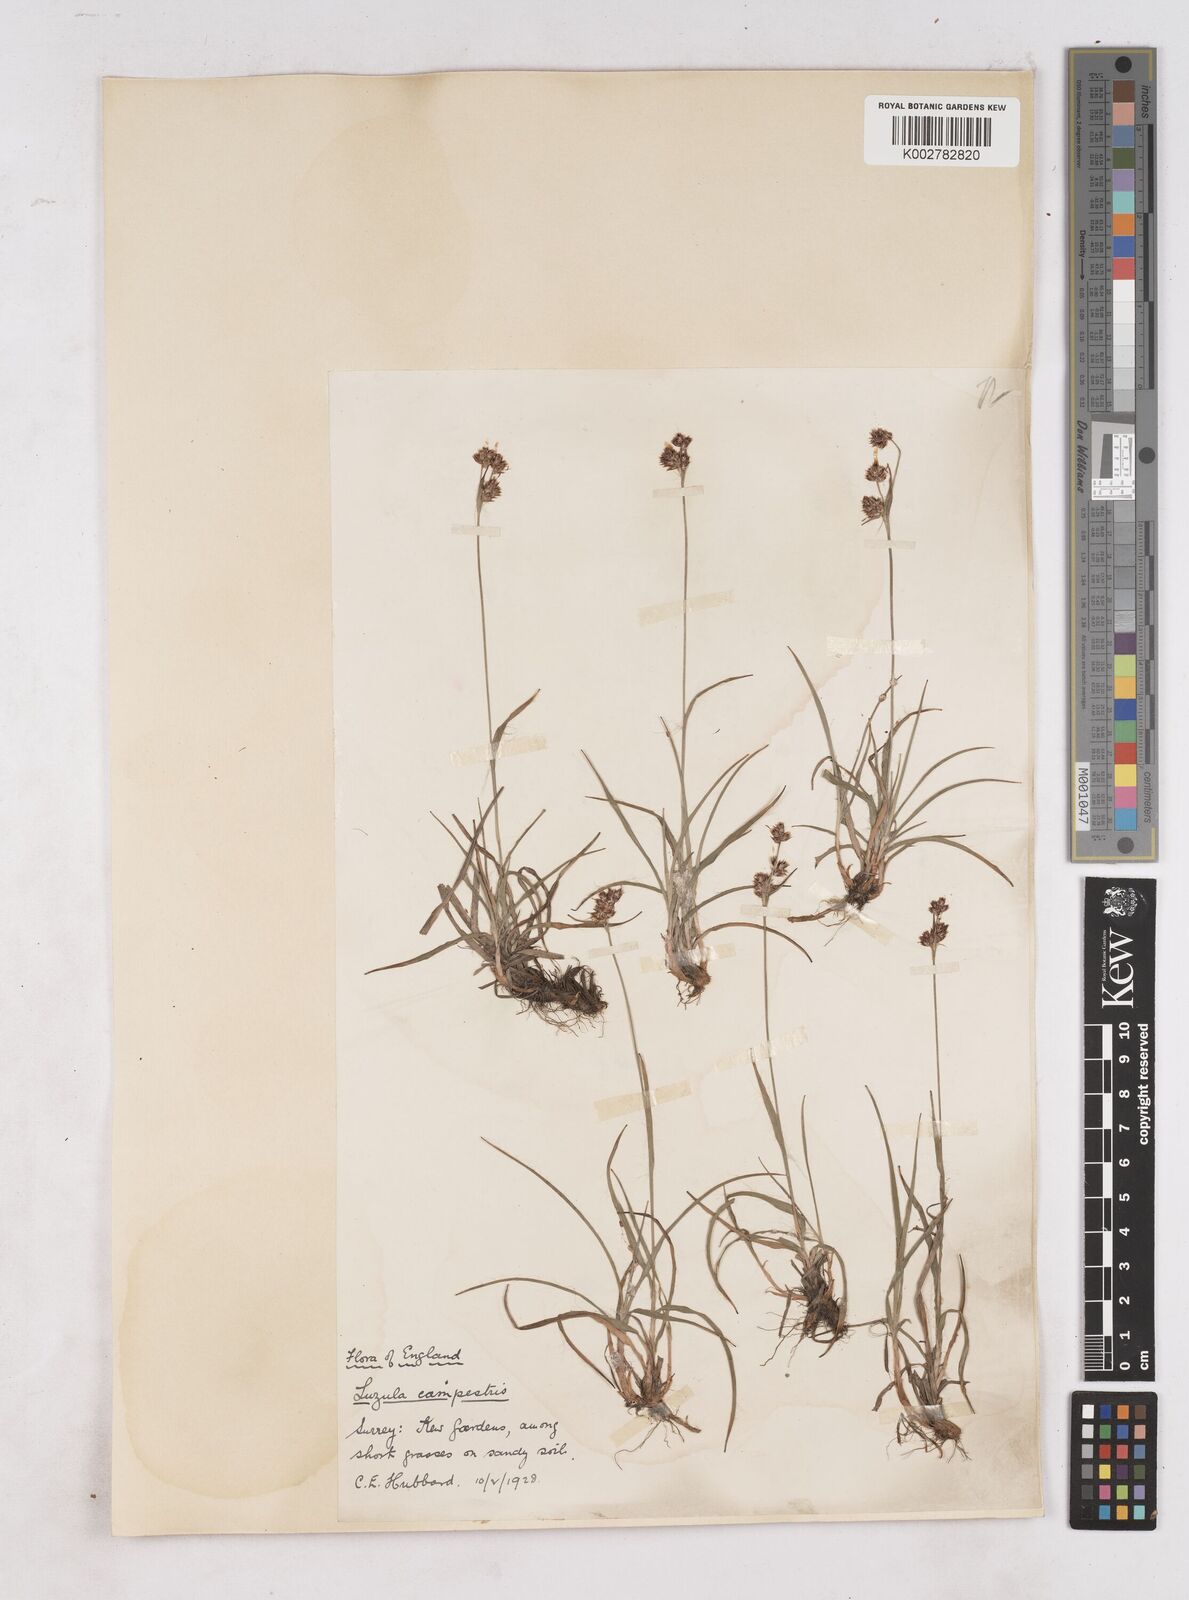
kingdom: Plantae
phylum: Tracheophyta
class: Liliopsida
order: Poales
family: Juncaceae
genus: Luzula
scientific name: Luzula campestris
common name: Field wood-rush
